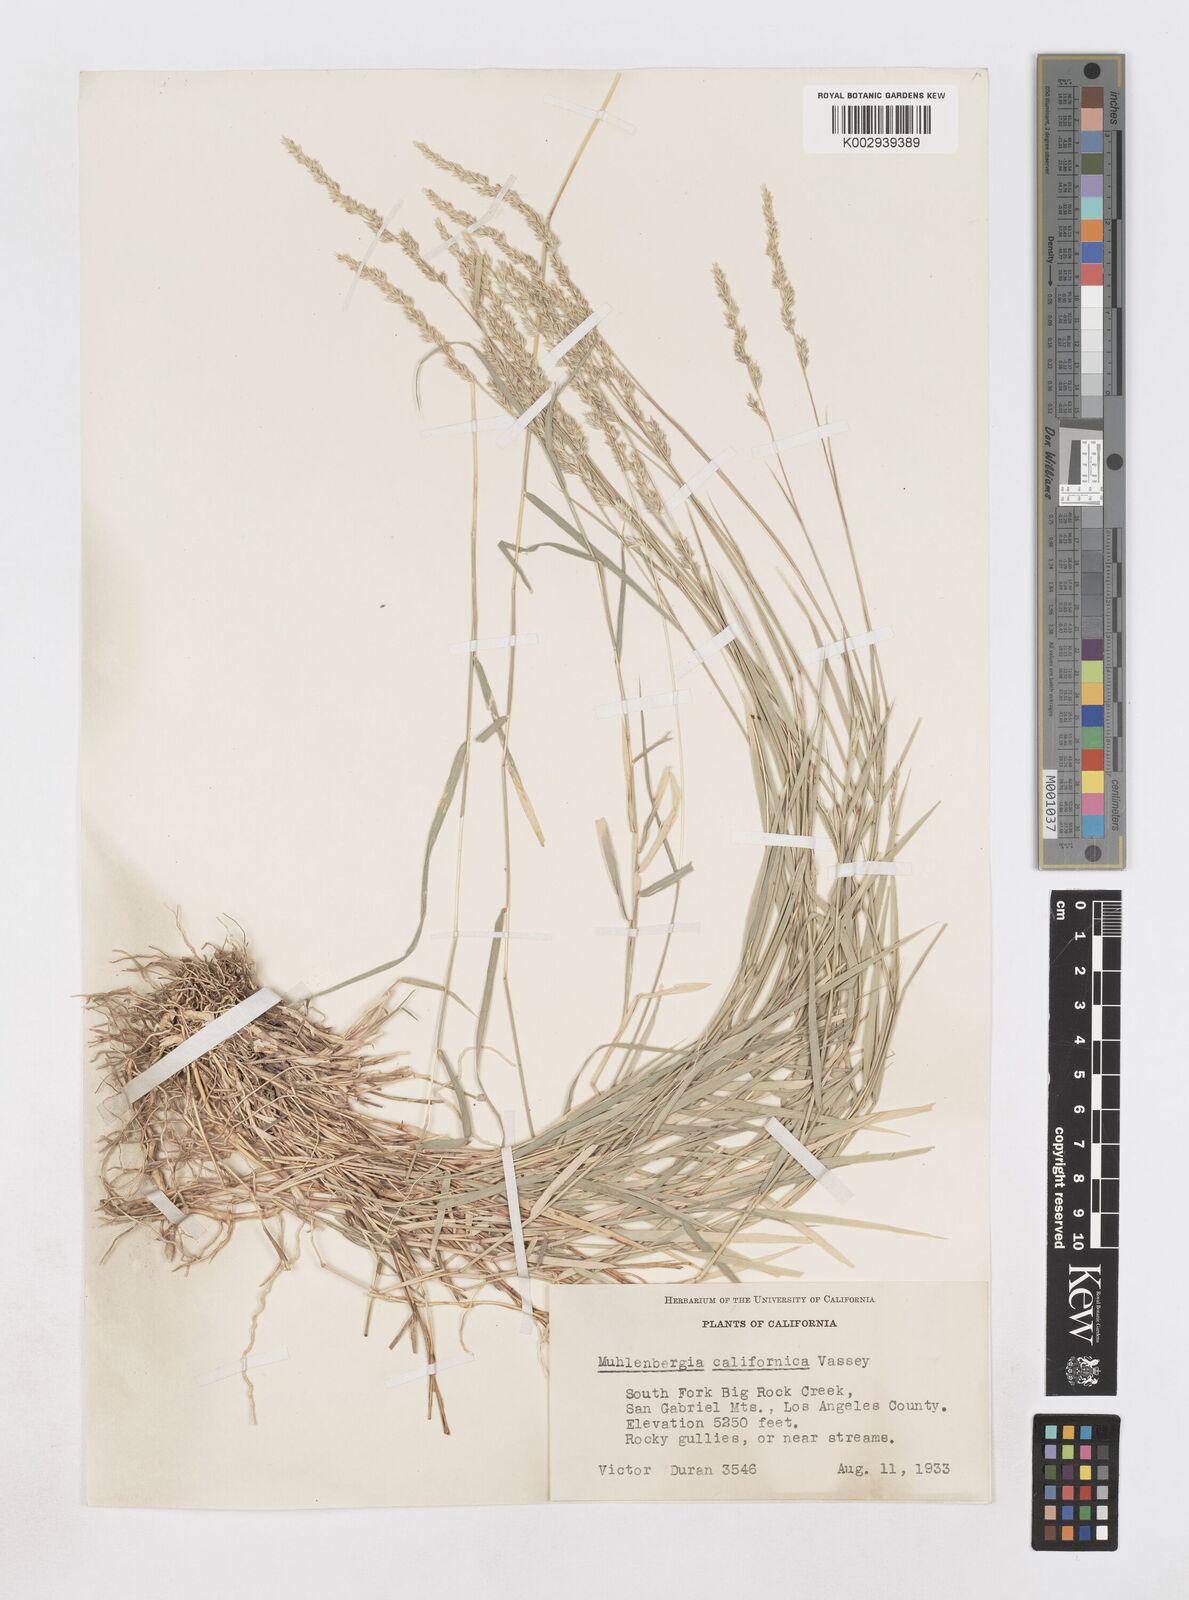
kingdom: Plantae
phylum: Tracheophyta
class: Liliopsida
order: Poales
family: Poaceae
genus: Muhlenbergia
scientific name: Muhlenbergia californica
